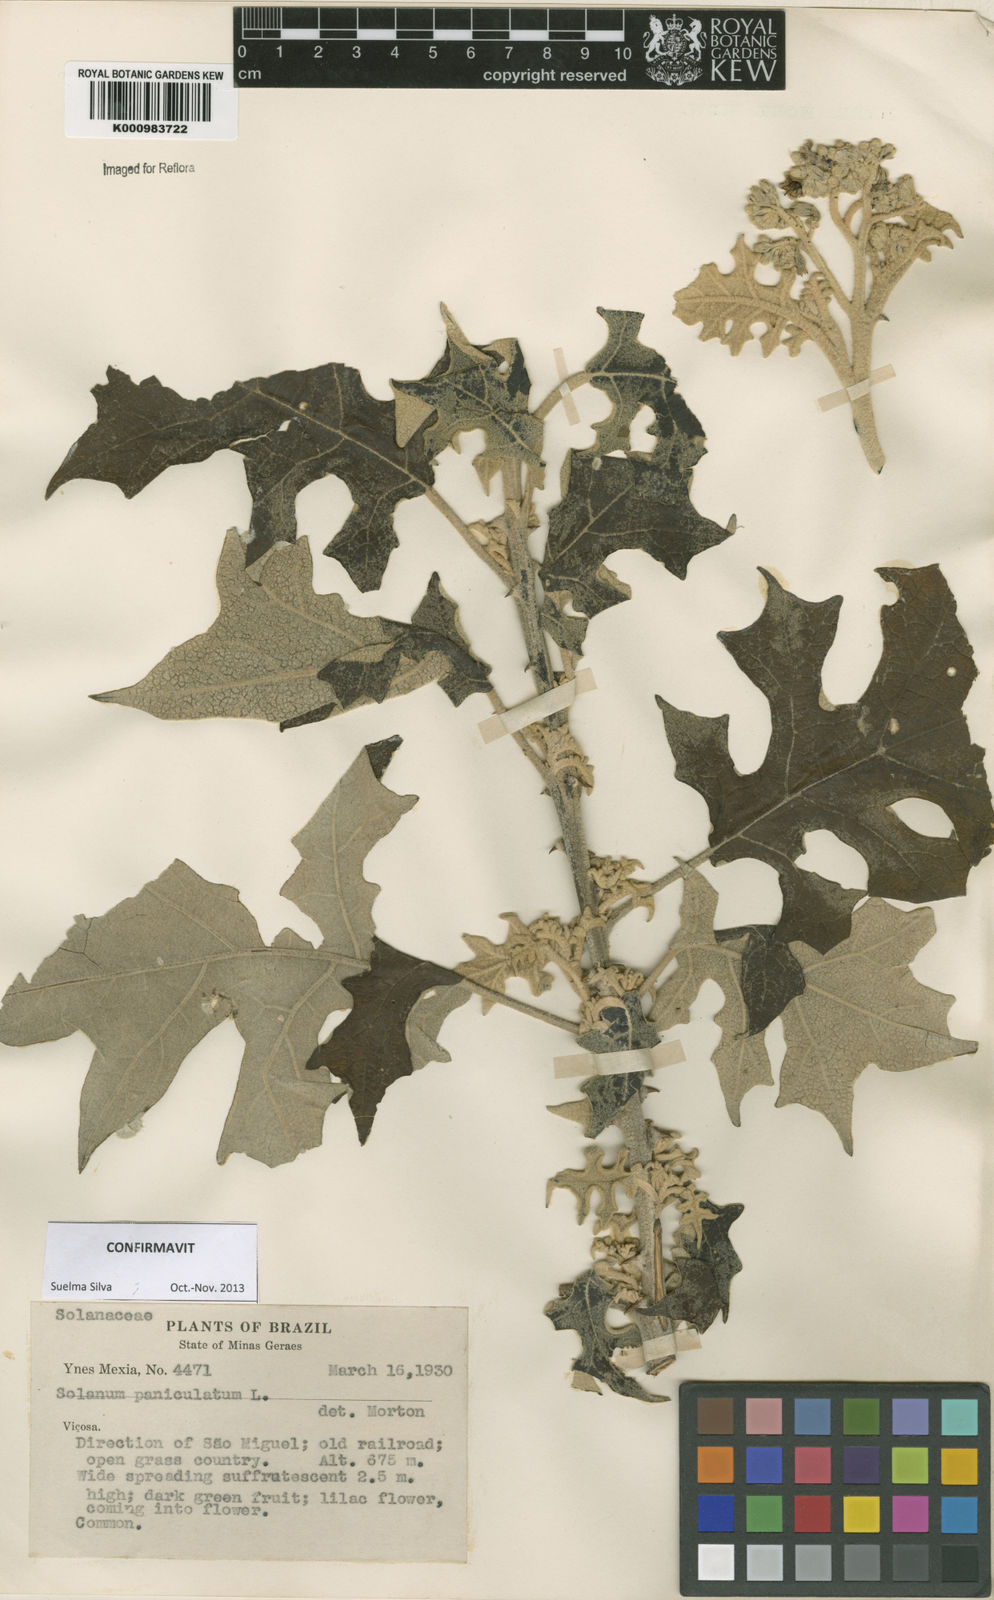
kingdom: Plantae
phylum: Tracheophyta
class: Magnoliopsida
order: Solanales
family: Solanaceae
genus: Solanum
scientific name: Solanum paniculatum
